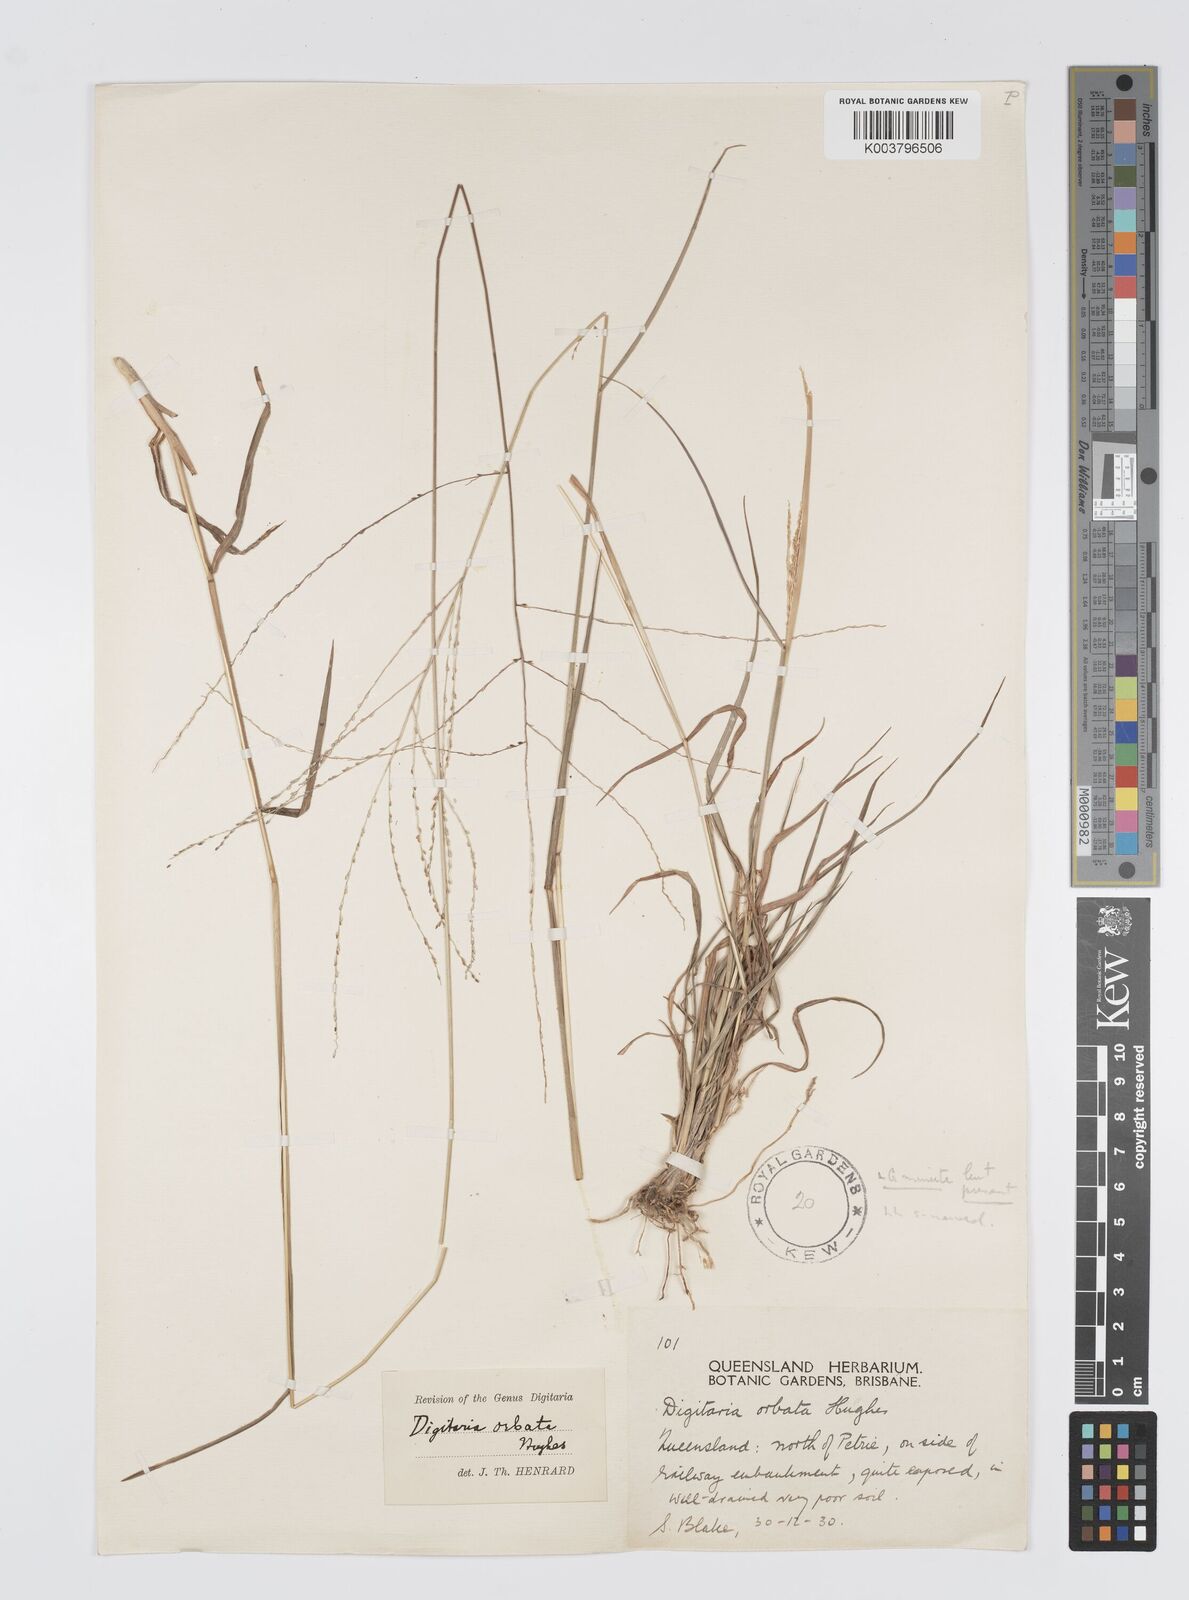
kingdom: Plantae
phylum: Tracheophyta
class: Liliopsida
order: Poales
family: Poaceae
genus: Digitaria
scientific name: Digitaria orbata
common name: Crabgrass
